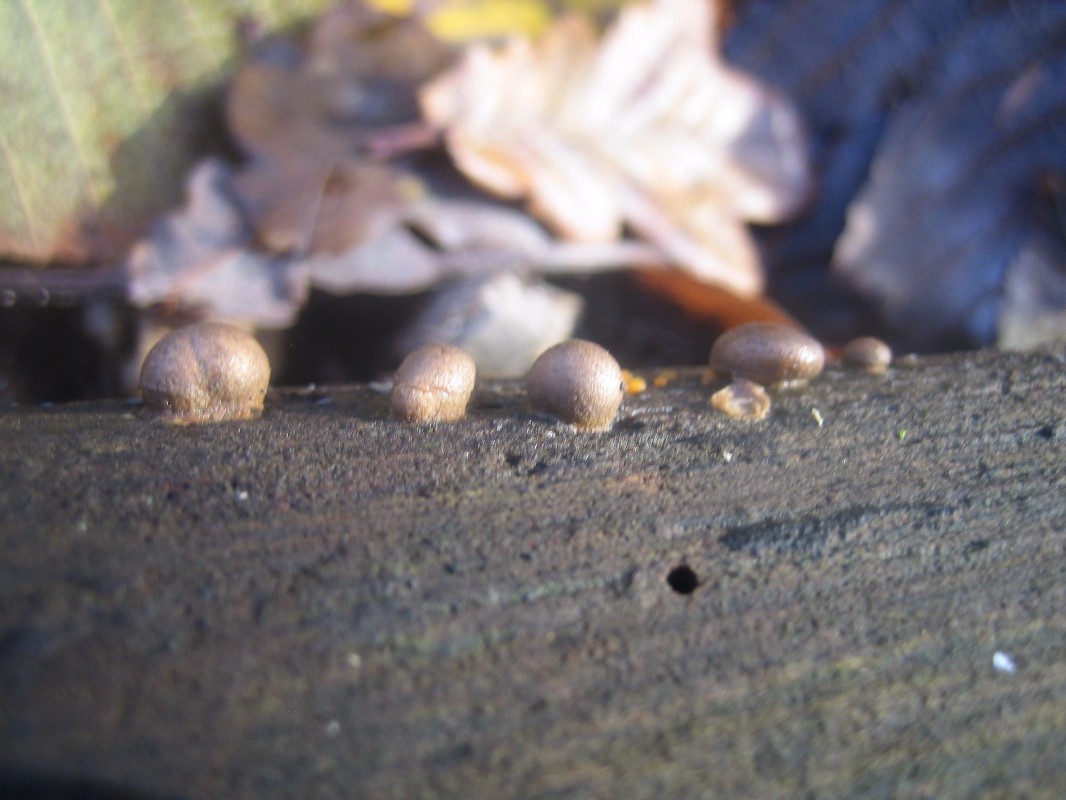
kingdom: Protozoa
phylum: Mycetozoa
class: Myxomycetes
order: Cribrariales
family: Tubiferaceae
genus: Lycogala
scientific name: Lycogala epidendrum
